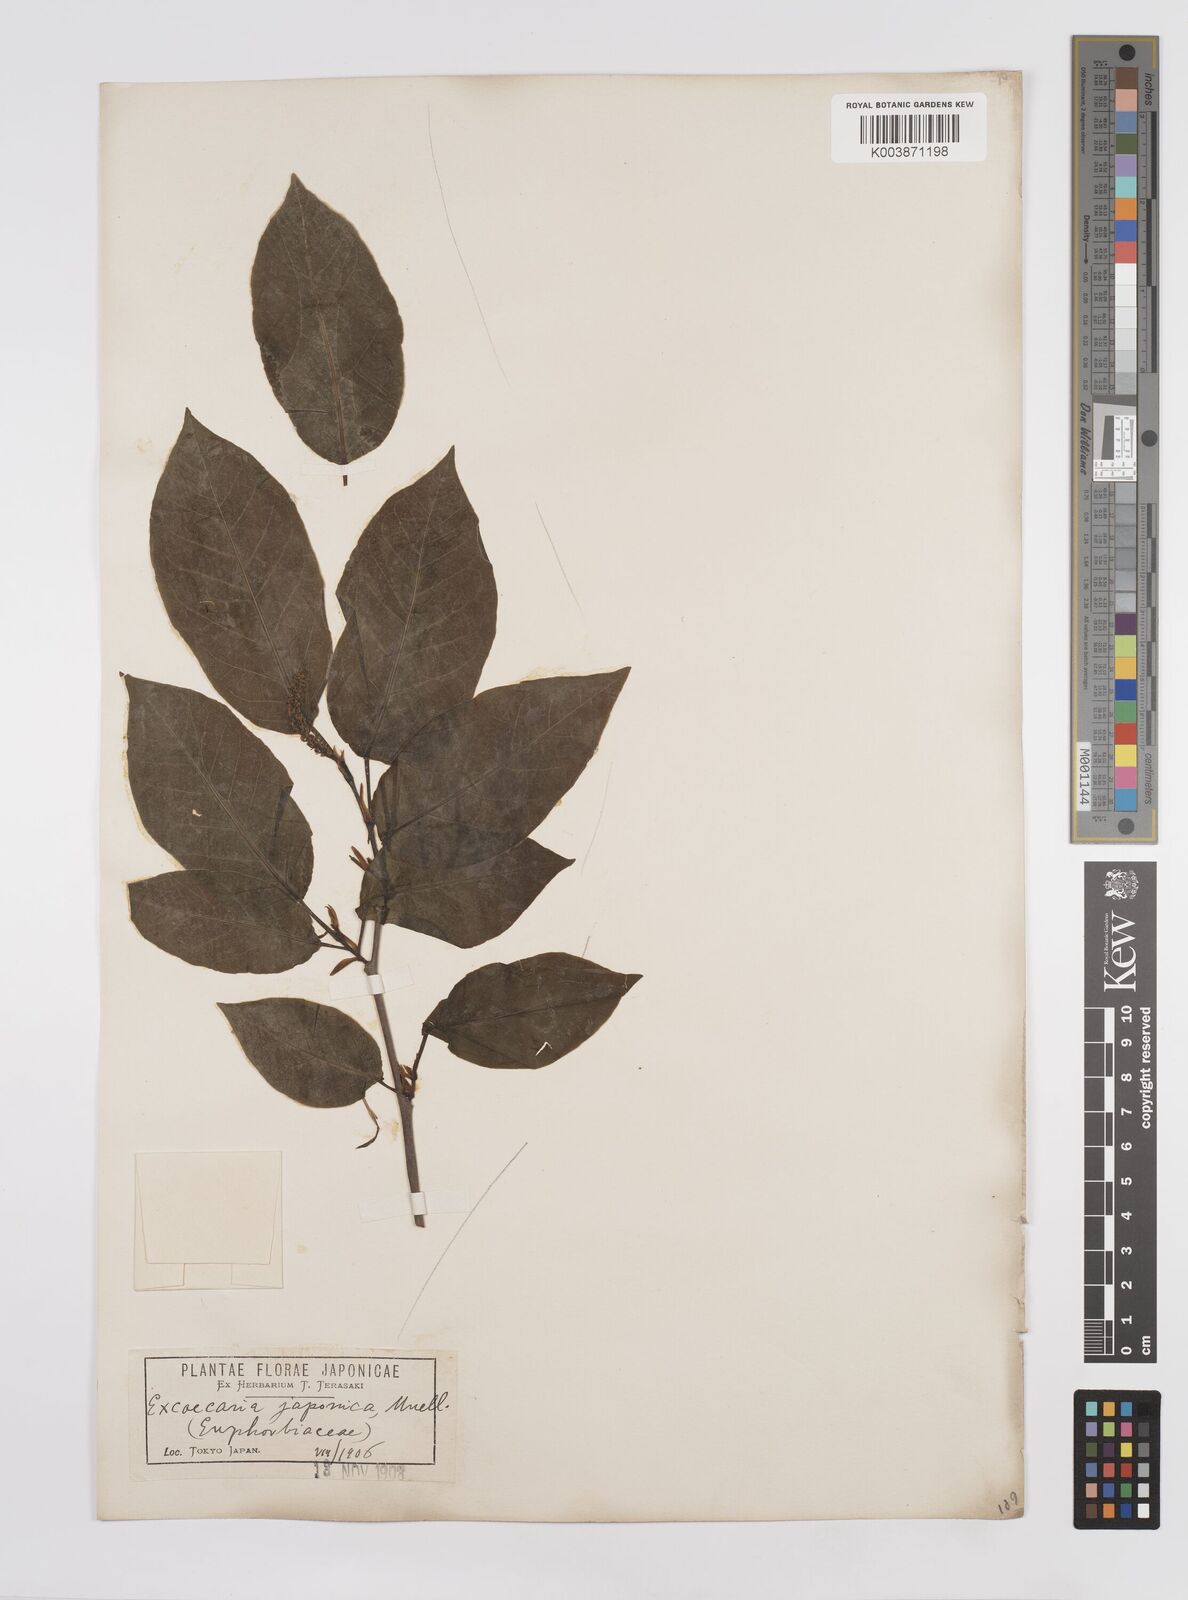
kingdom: Plantae
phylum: Tracheophyta
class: Magnoliopsida
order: Malpighiales
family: Euphorbiaceae
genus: Neoshirakia
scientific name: Neoshirakia japonica
